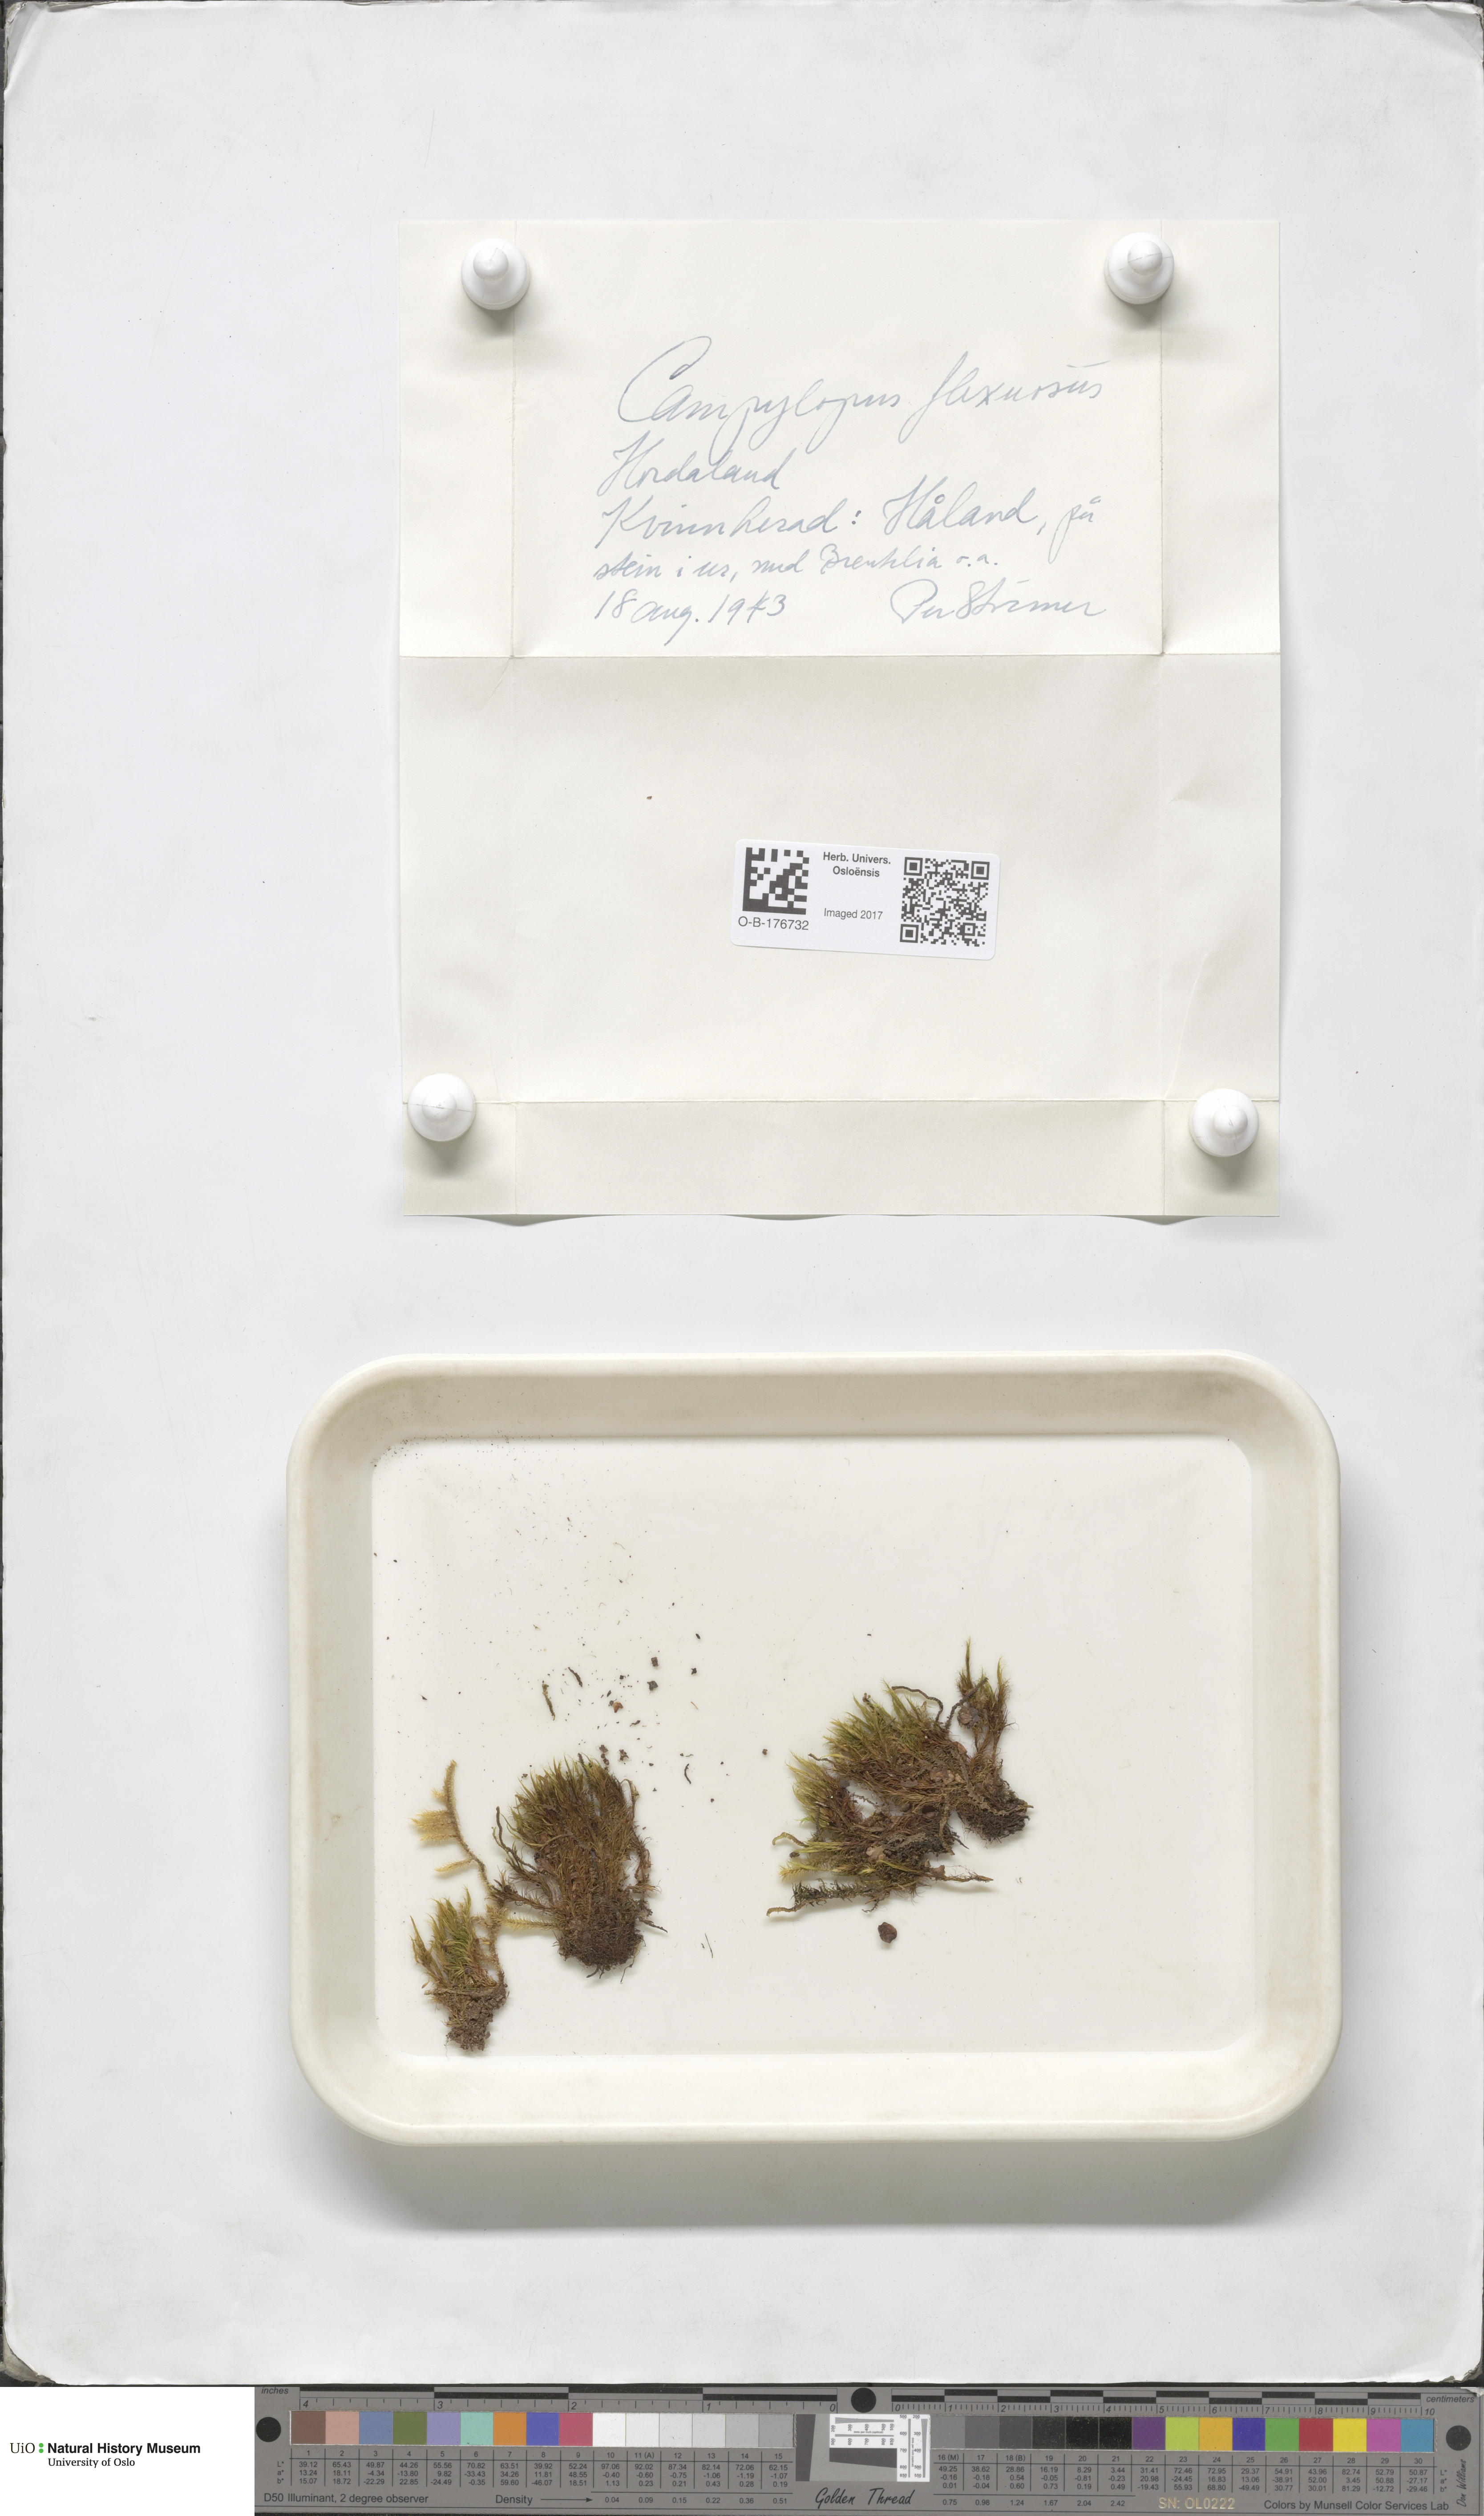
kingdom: Plantae
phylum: Bryophyta
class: Bryopsida
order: Dicranales
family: Leucobryaceae
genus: Campylopus
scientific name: Campylopus flexuosus
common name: Rusty swan-neck moss
